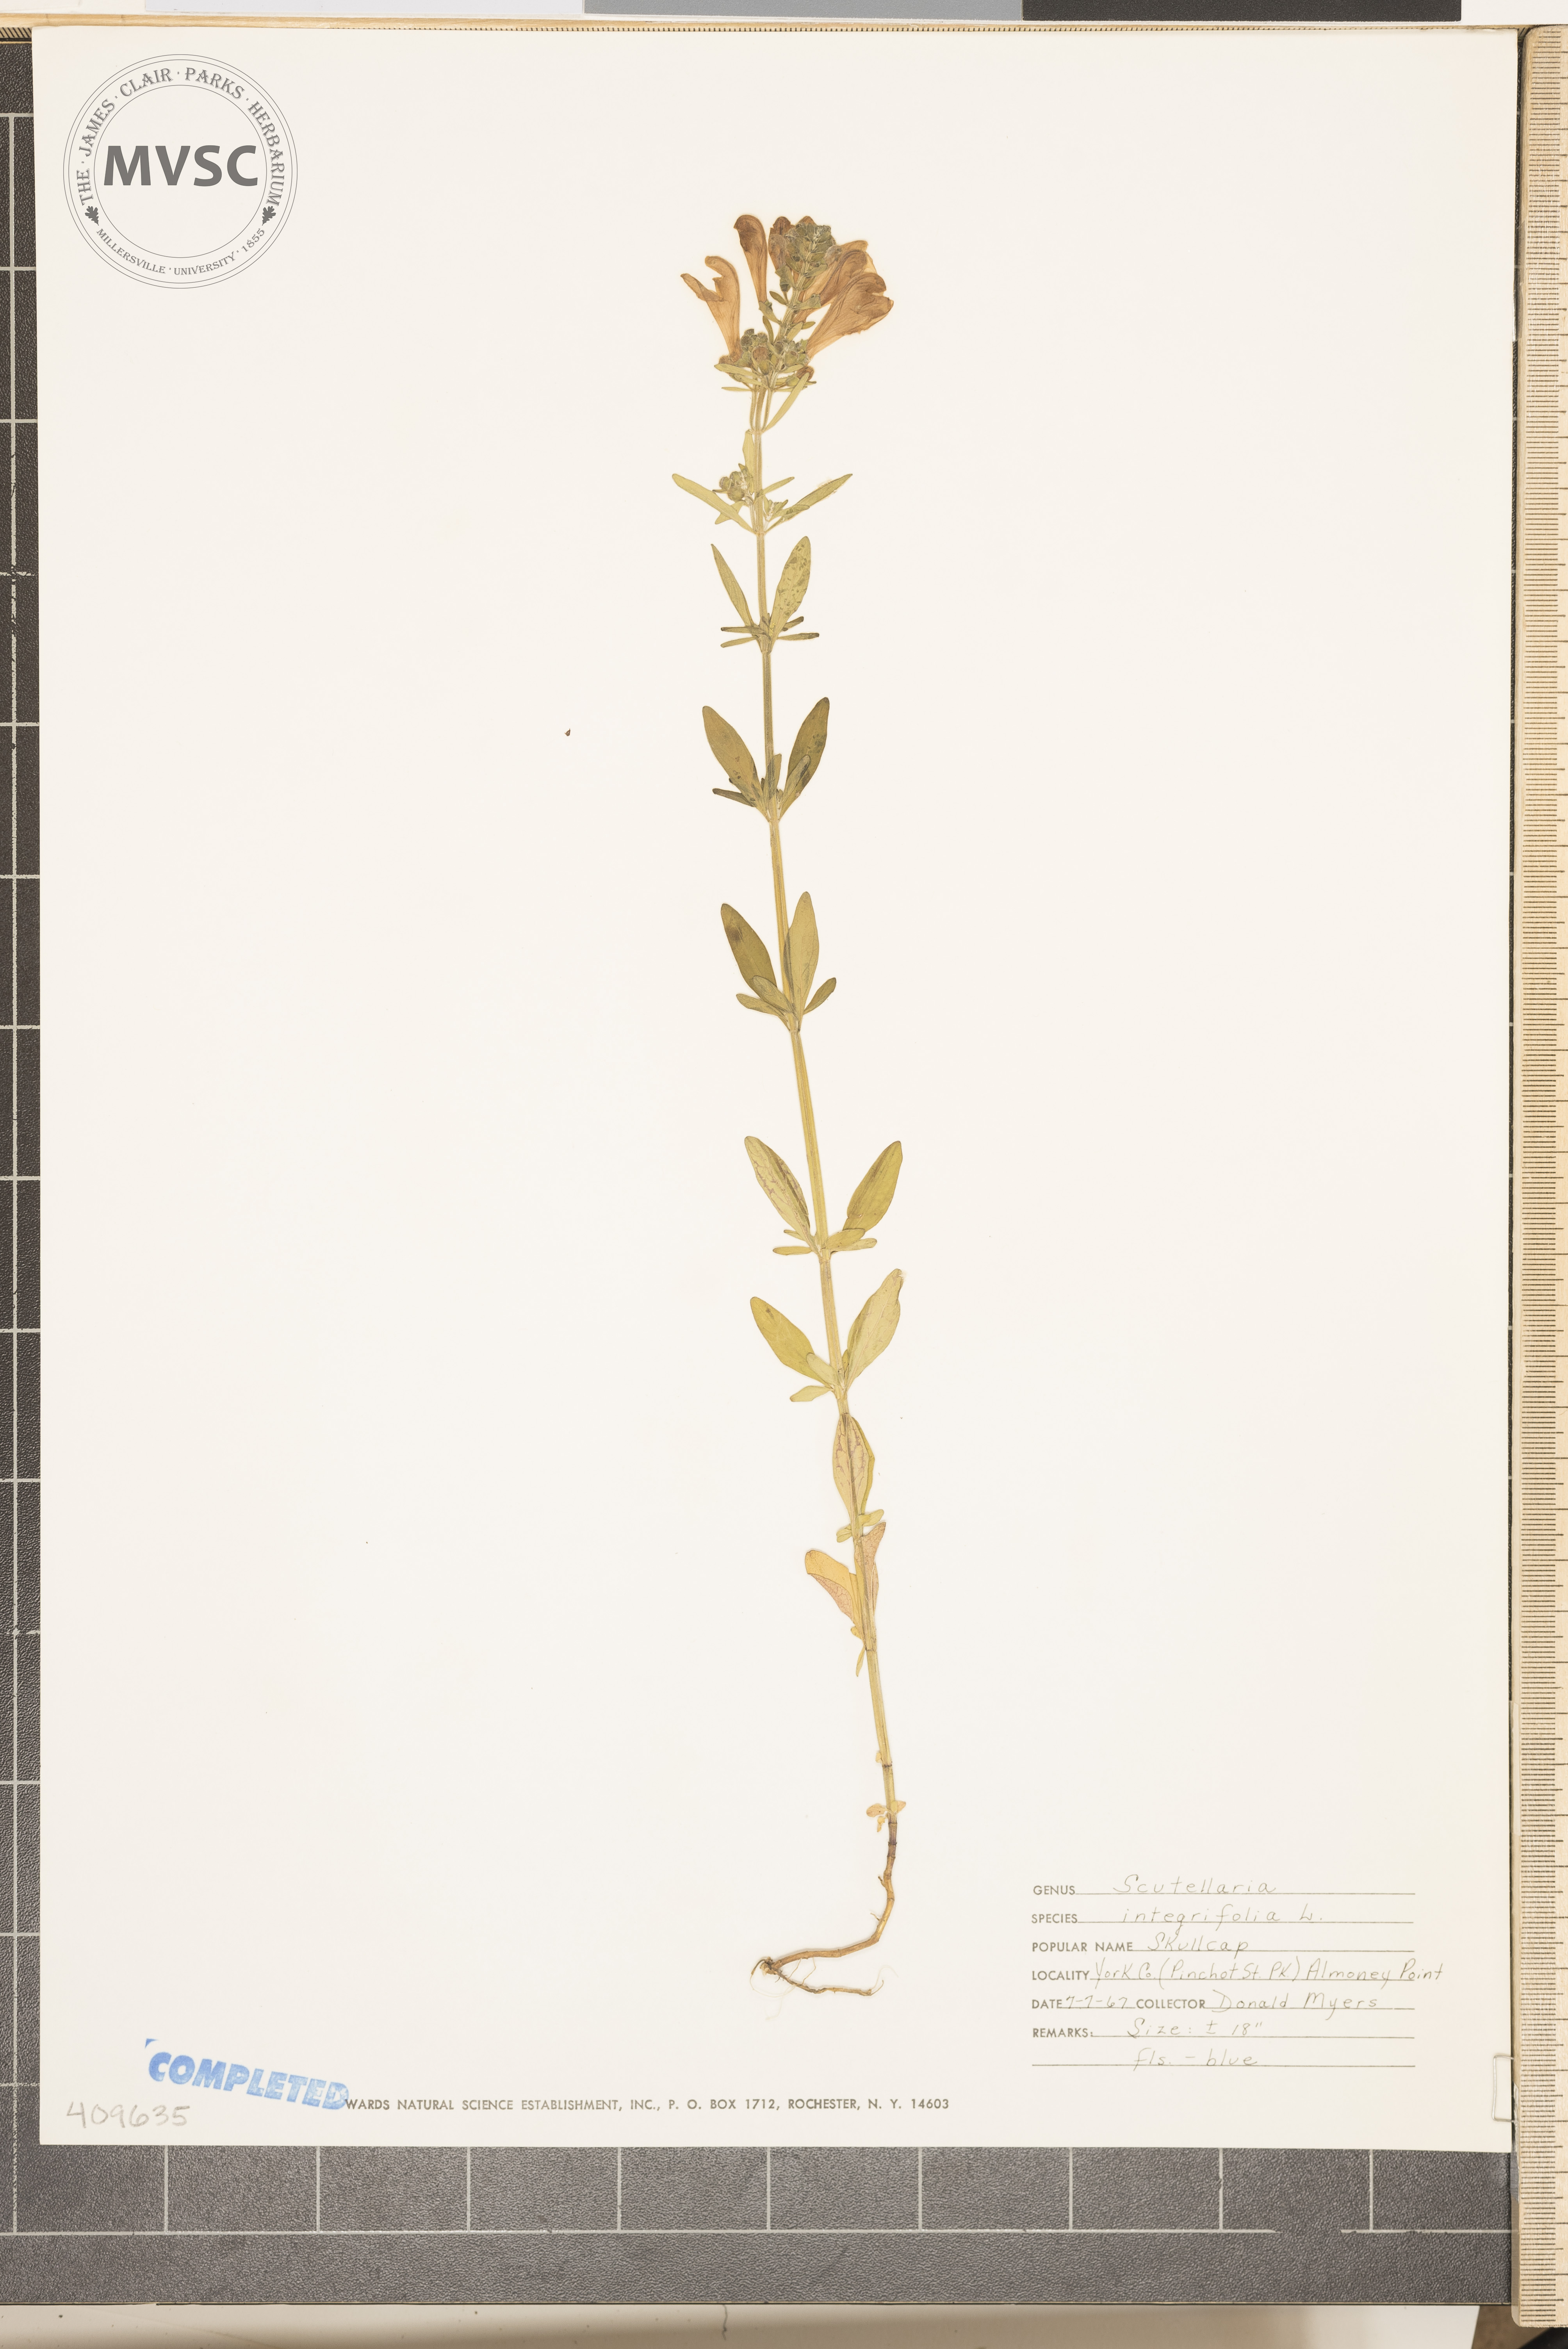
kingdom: Plantae
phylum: Tracheophyta
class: Magnoliopsida
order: Lamiales
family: Lamiaceae
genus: Scutellaria
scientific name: Scutellaria integrifolia
